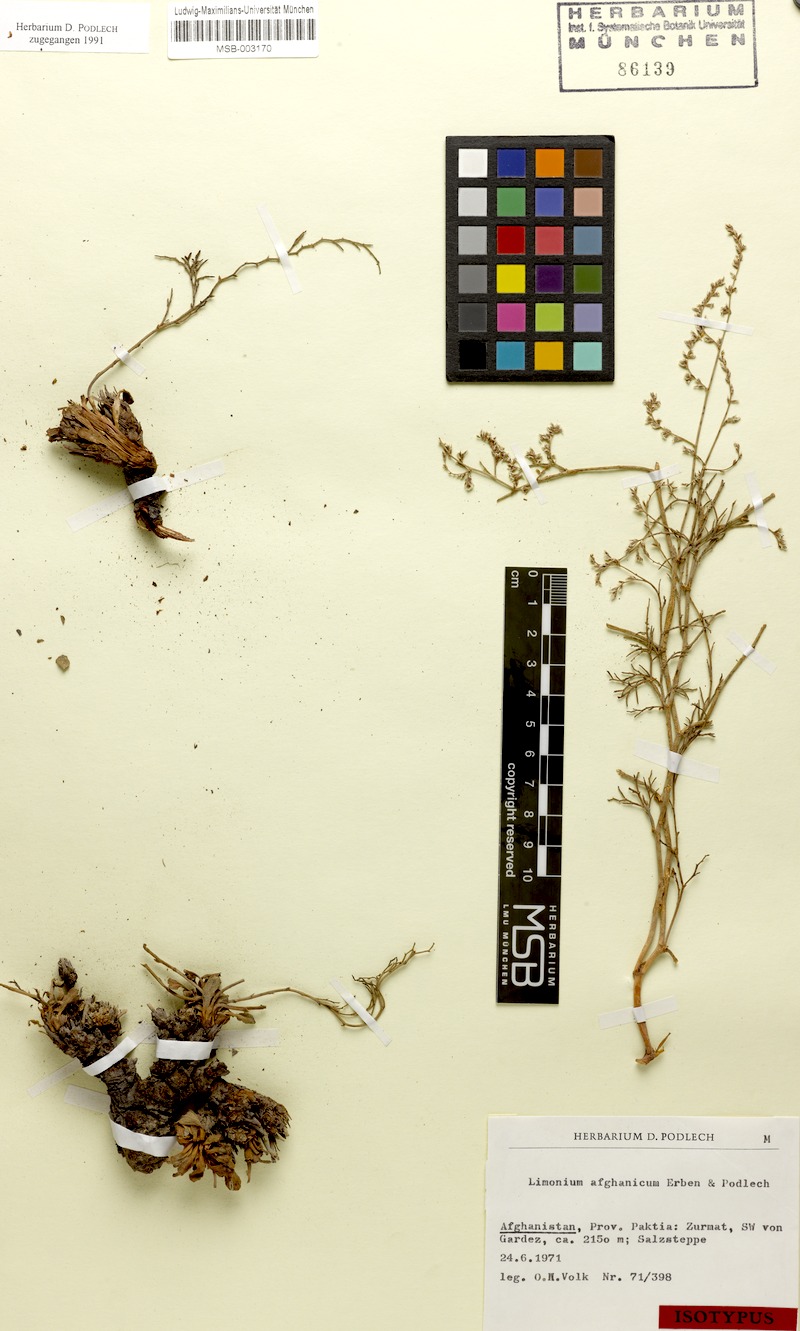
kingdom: Plantae
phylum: Tracheophyta
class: Magnoliopsida
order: Caryophyllales
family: Plumbaginaceae
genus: Limonium
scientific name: Limonium afghanicum
